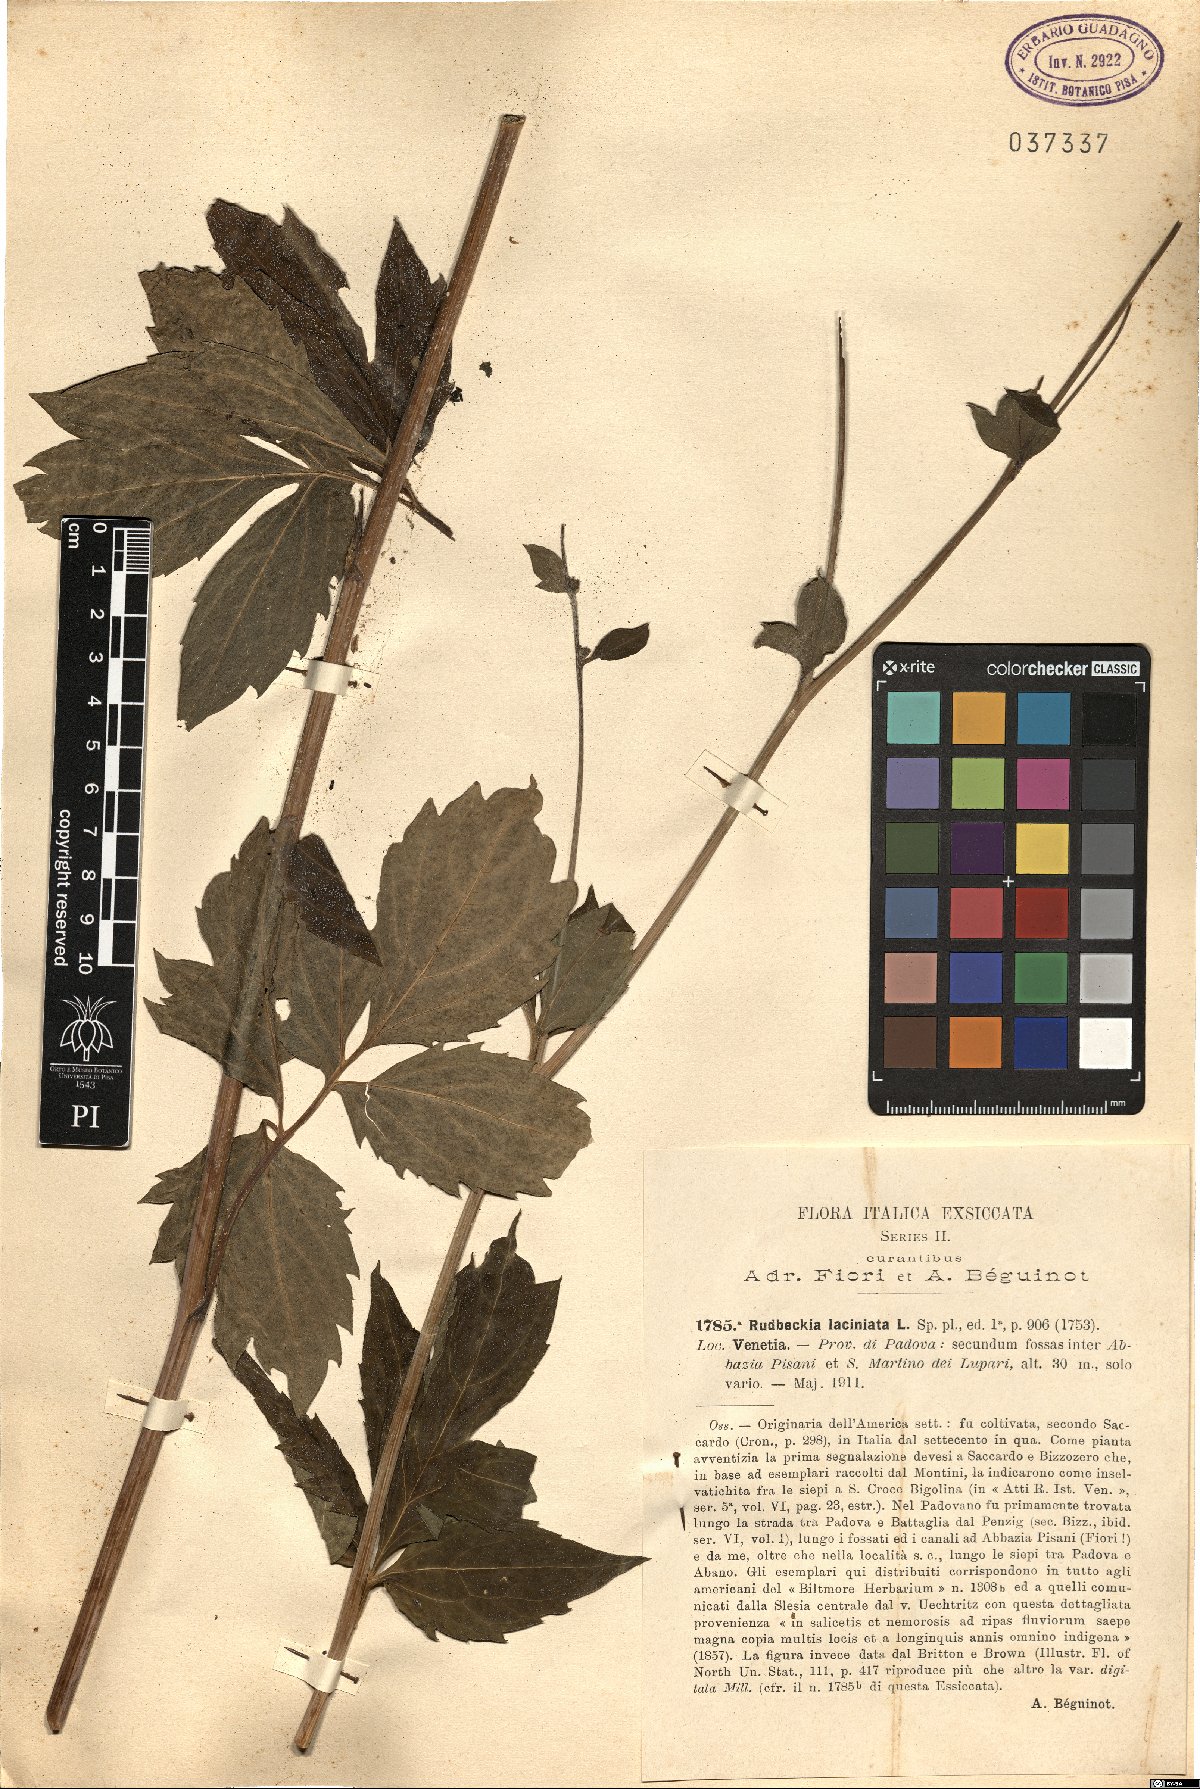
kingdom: Plantae
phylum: Tracheophyta
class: Magnoliopsida
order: Asterales
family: Asteraceae
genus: Rudbeckia
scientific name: Rudbeckia laciniata
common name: Coneflower
